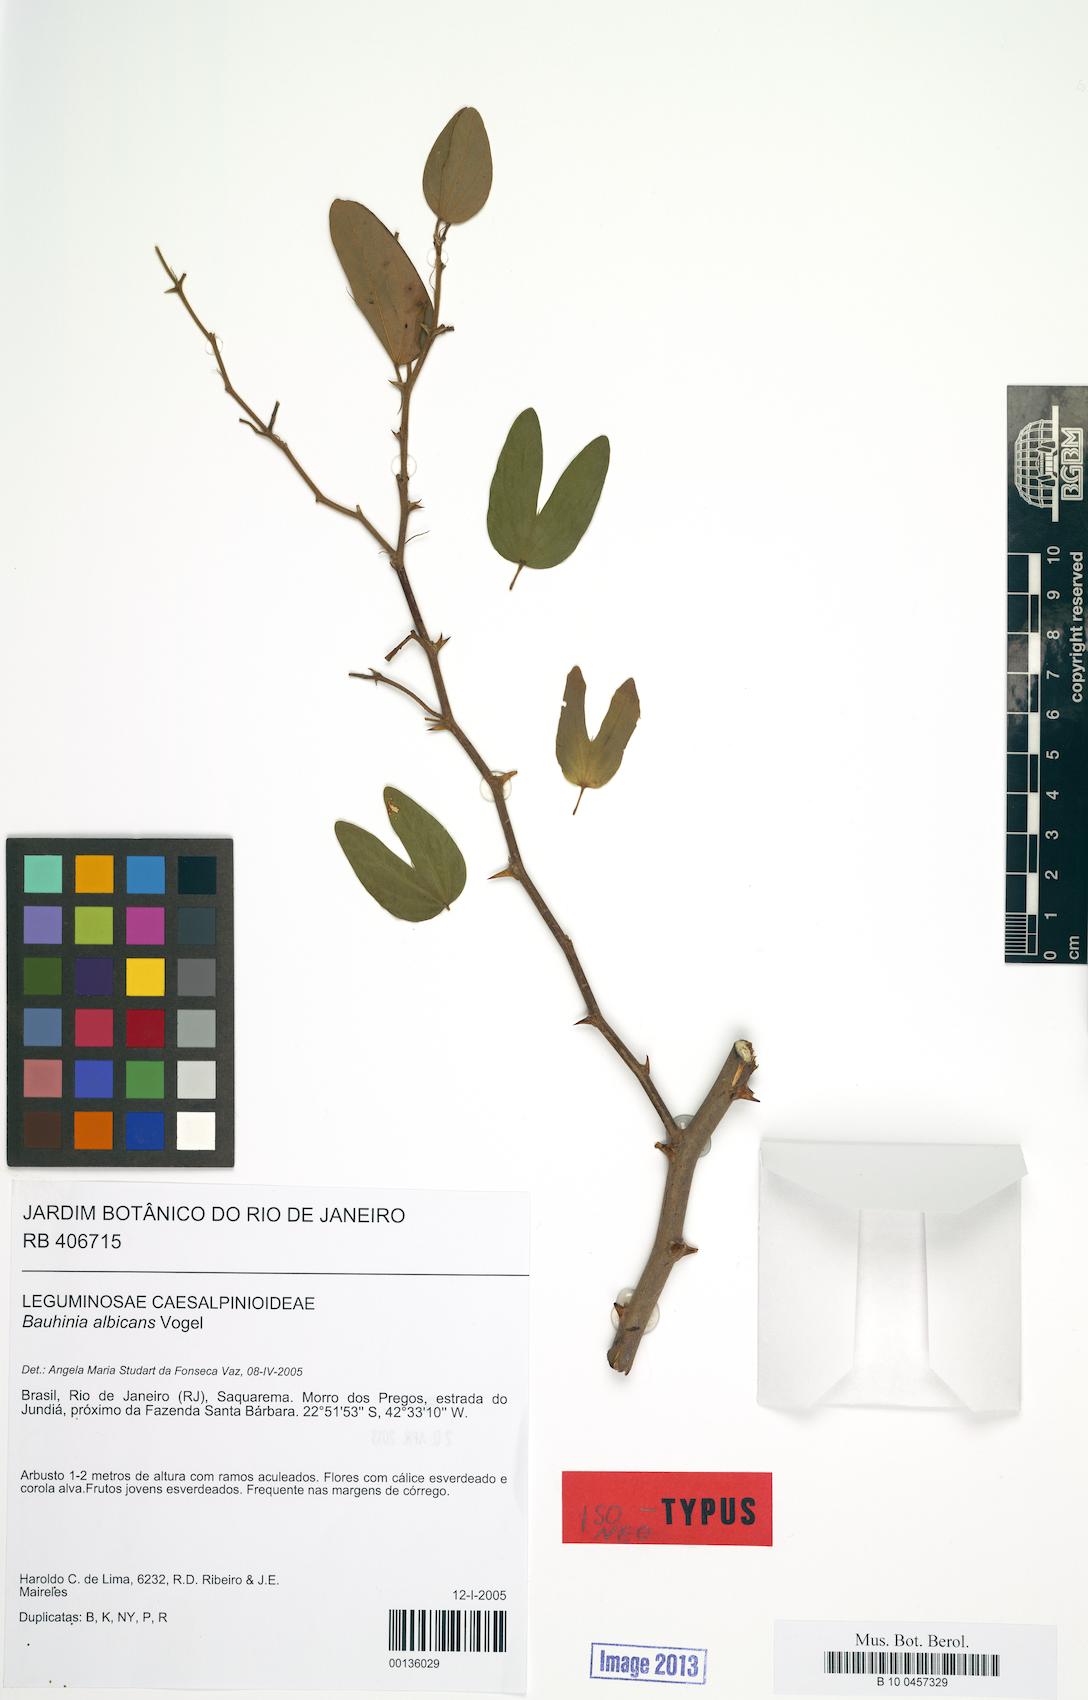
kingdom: Plantae
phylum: Tracheophyta
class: Magnoliopsida
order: Fabales
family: Fabaceae
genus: Bauhinia
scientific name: Bauhinia albicans
